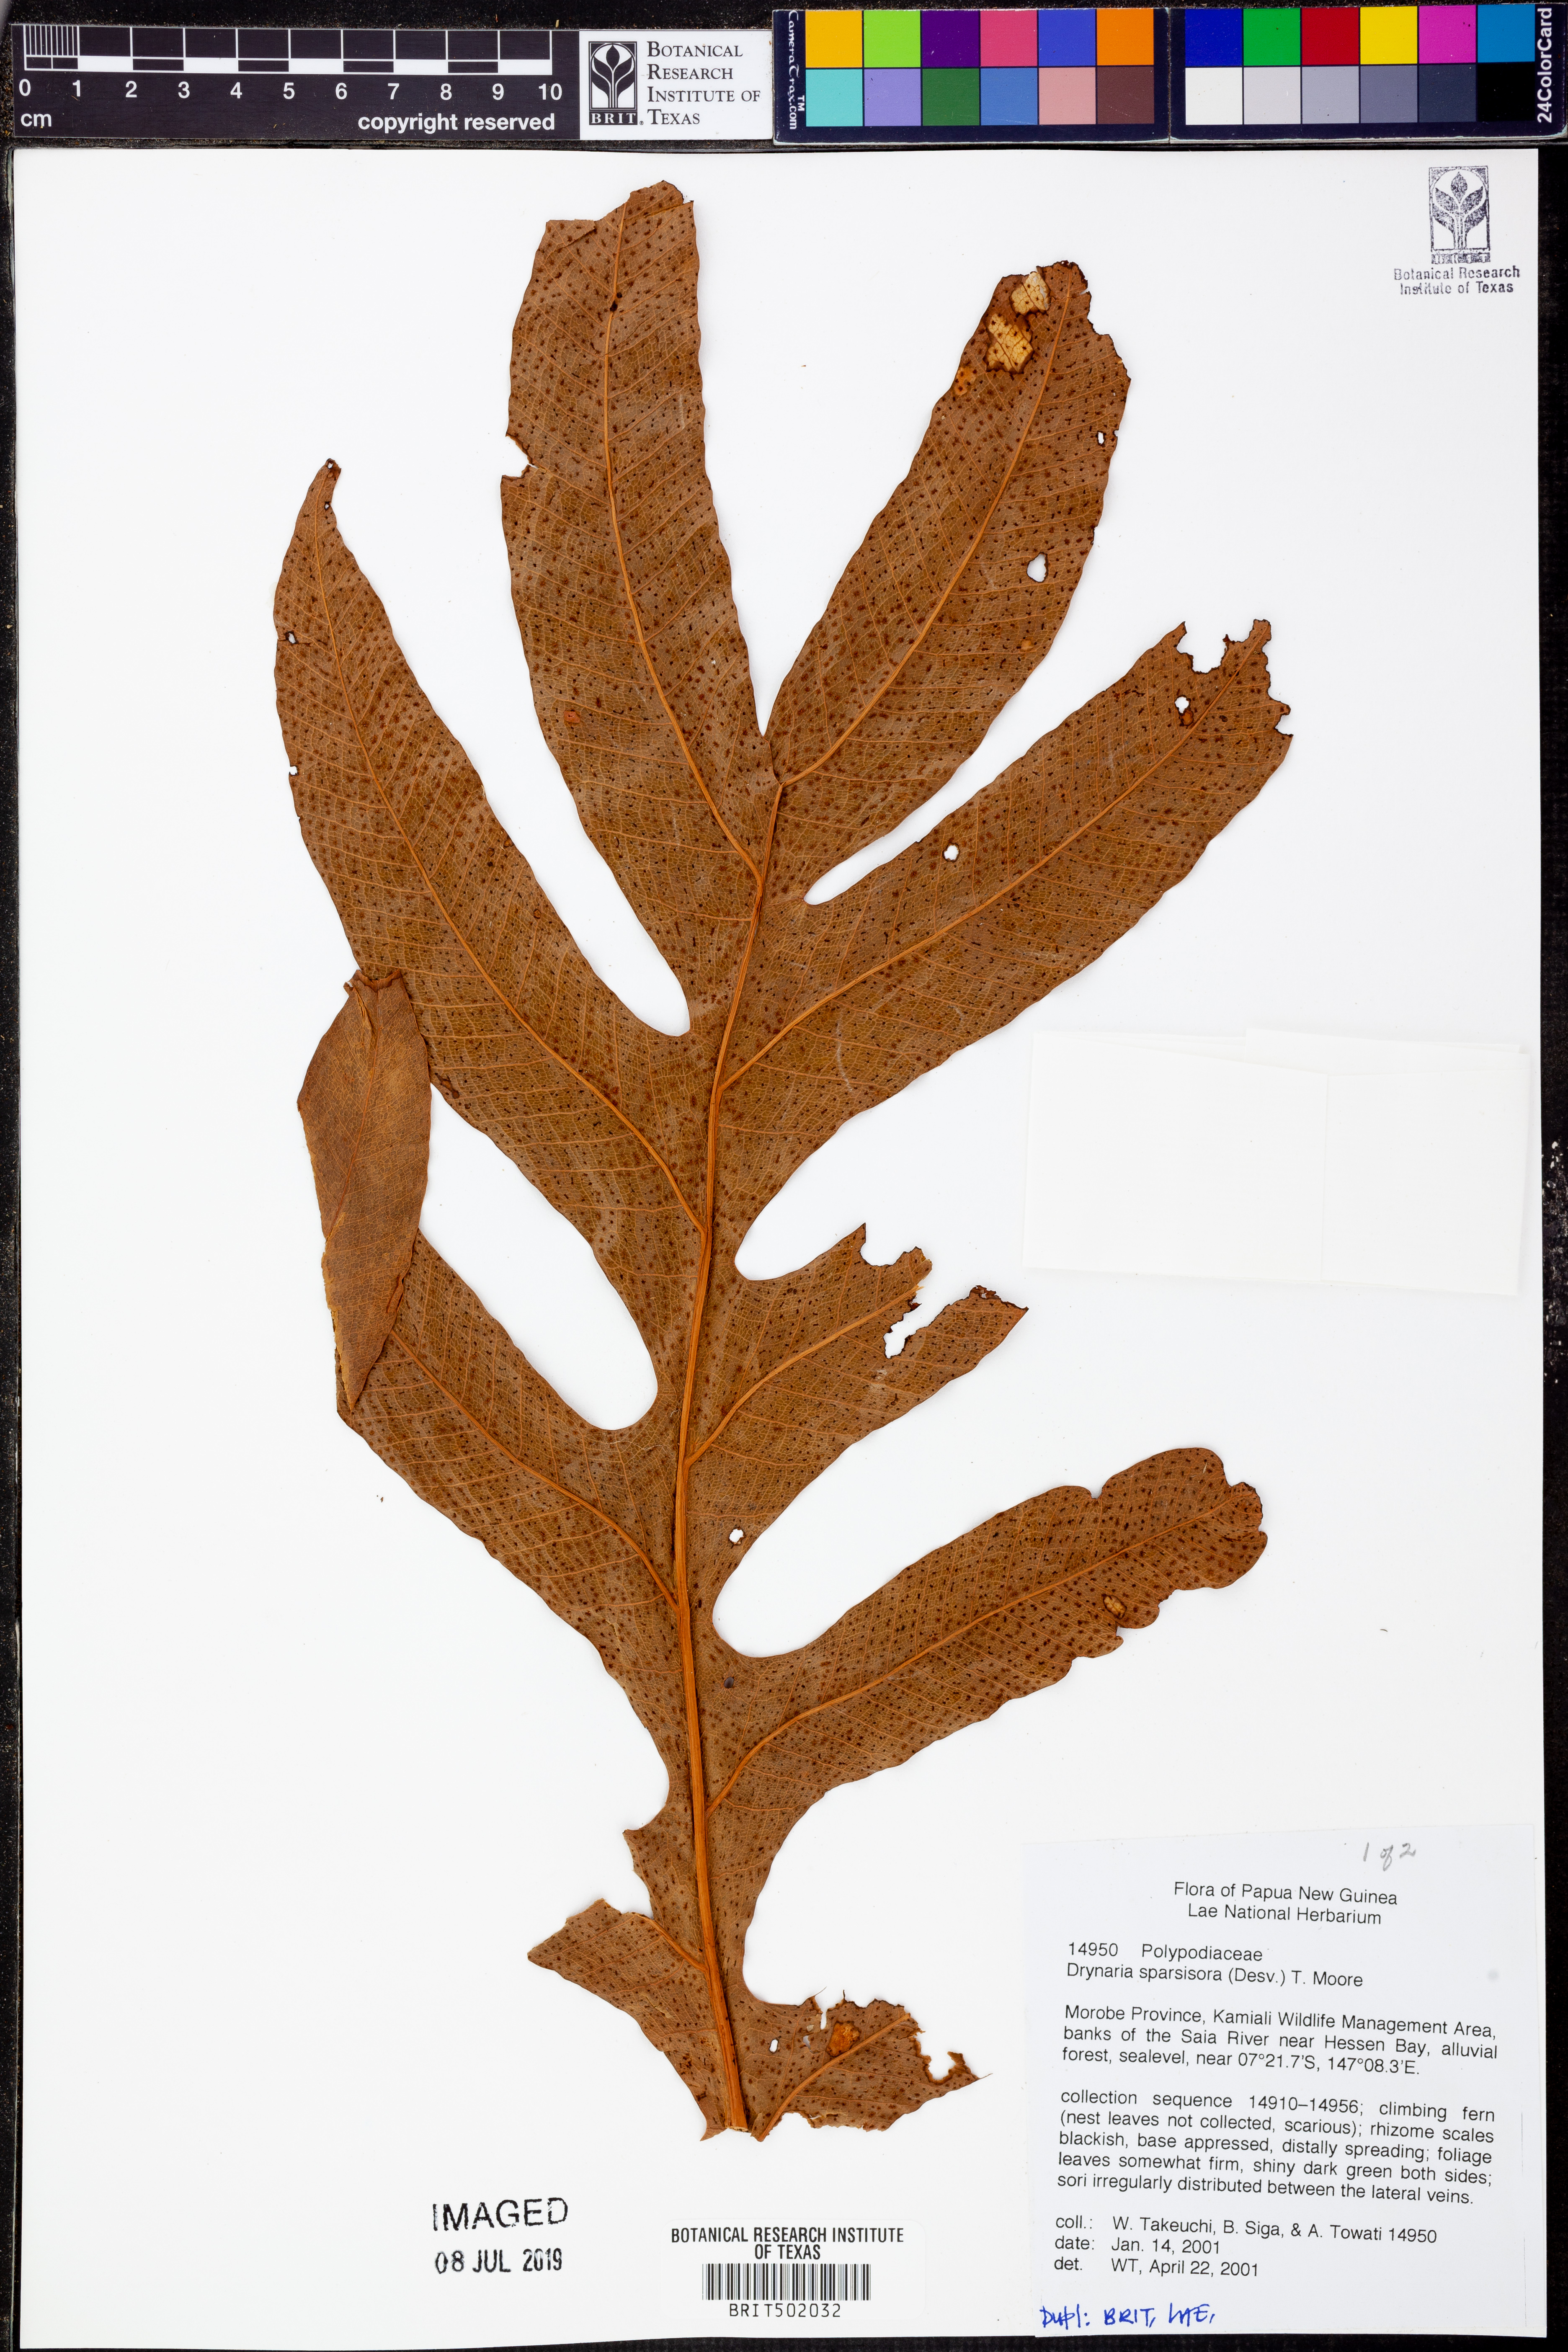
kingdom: Plantae
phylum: Tracheophyta
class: Polypodiopsida
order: Polypodiales
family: Polypodiaceae
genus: Drynaria
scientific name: Drynaria sparsisora
